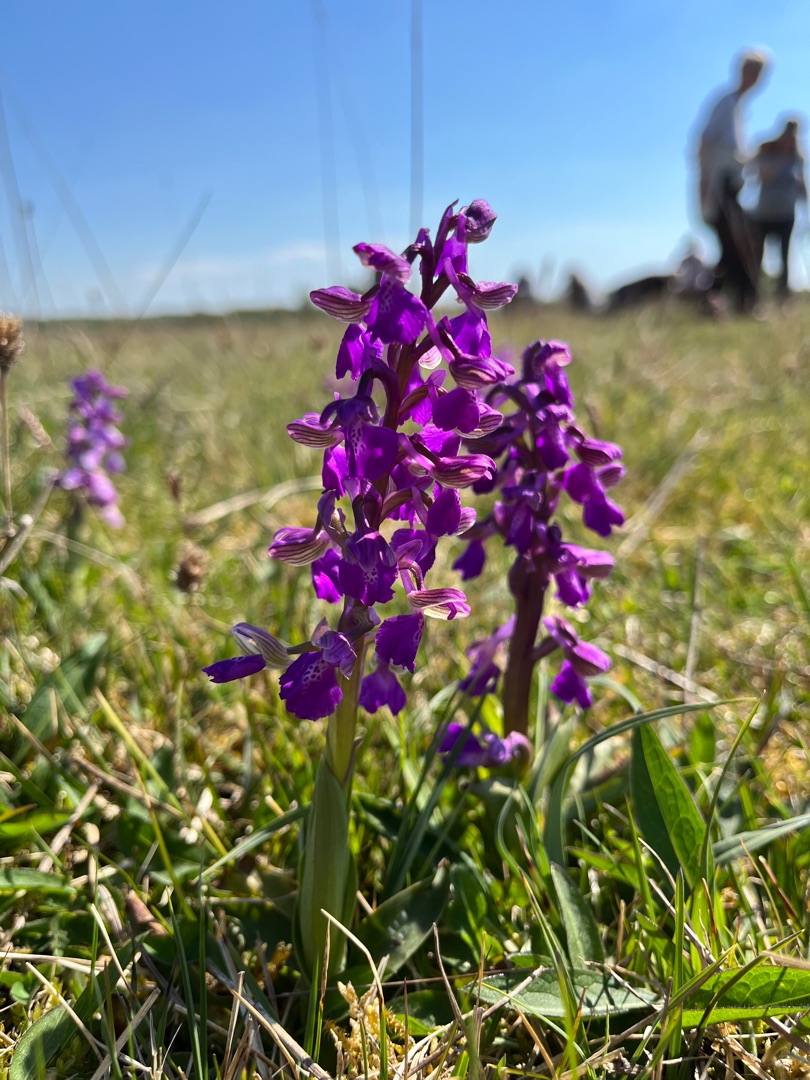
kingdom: Plantae
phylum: Tracheophyta
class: Liliopsida
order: Asparagales
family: Orchidaceae
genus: Anacamptis
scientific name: Anacamptis morio
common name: Salepgøgeurt
